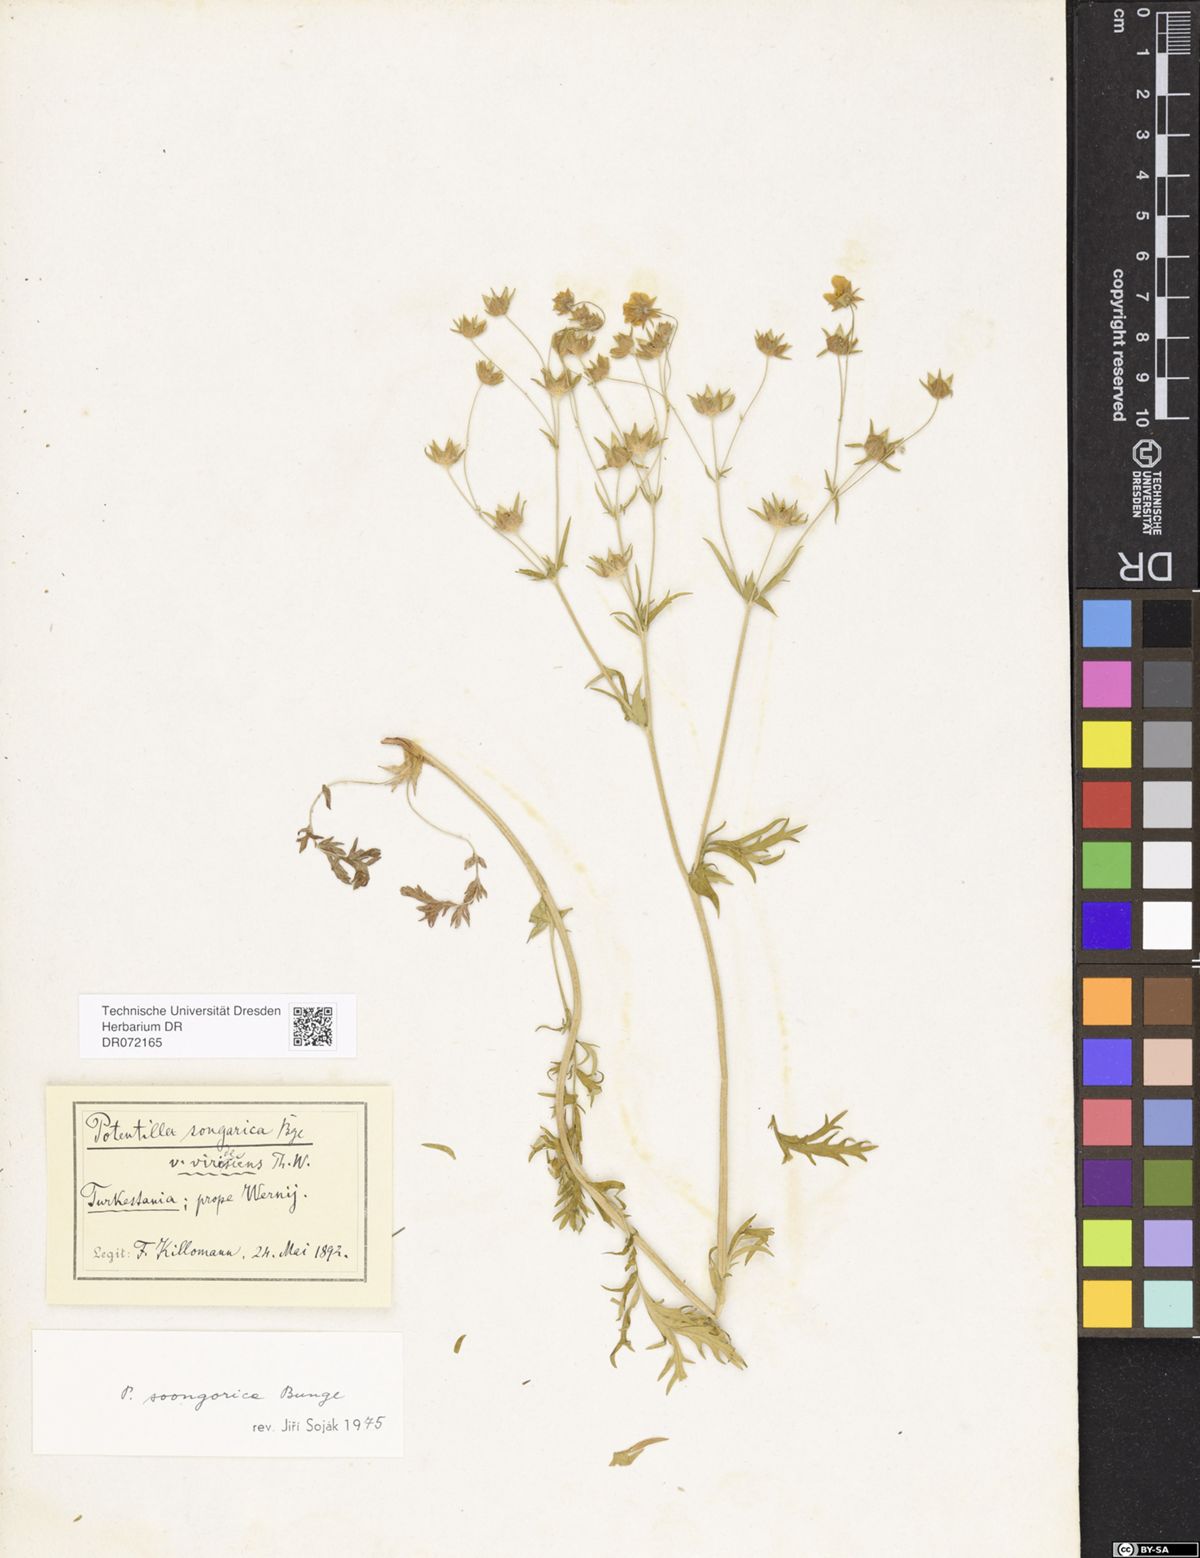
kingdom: Plantae
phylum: Tracheophyta
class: Magnoliopsida
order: Rosales
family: Rosaceae
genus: Potentilla
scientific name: Potentilla soongorica
